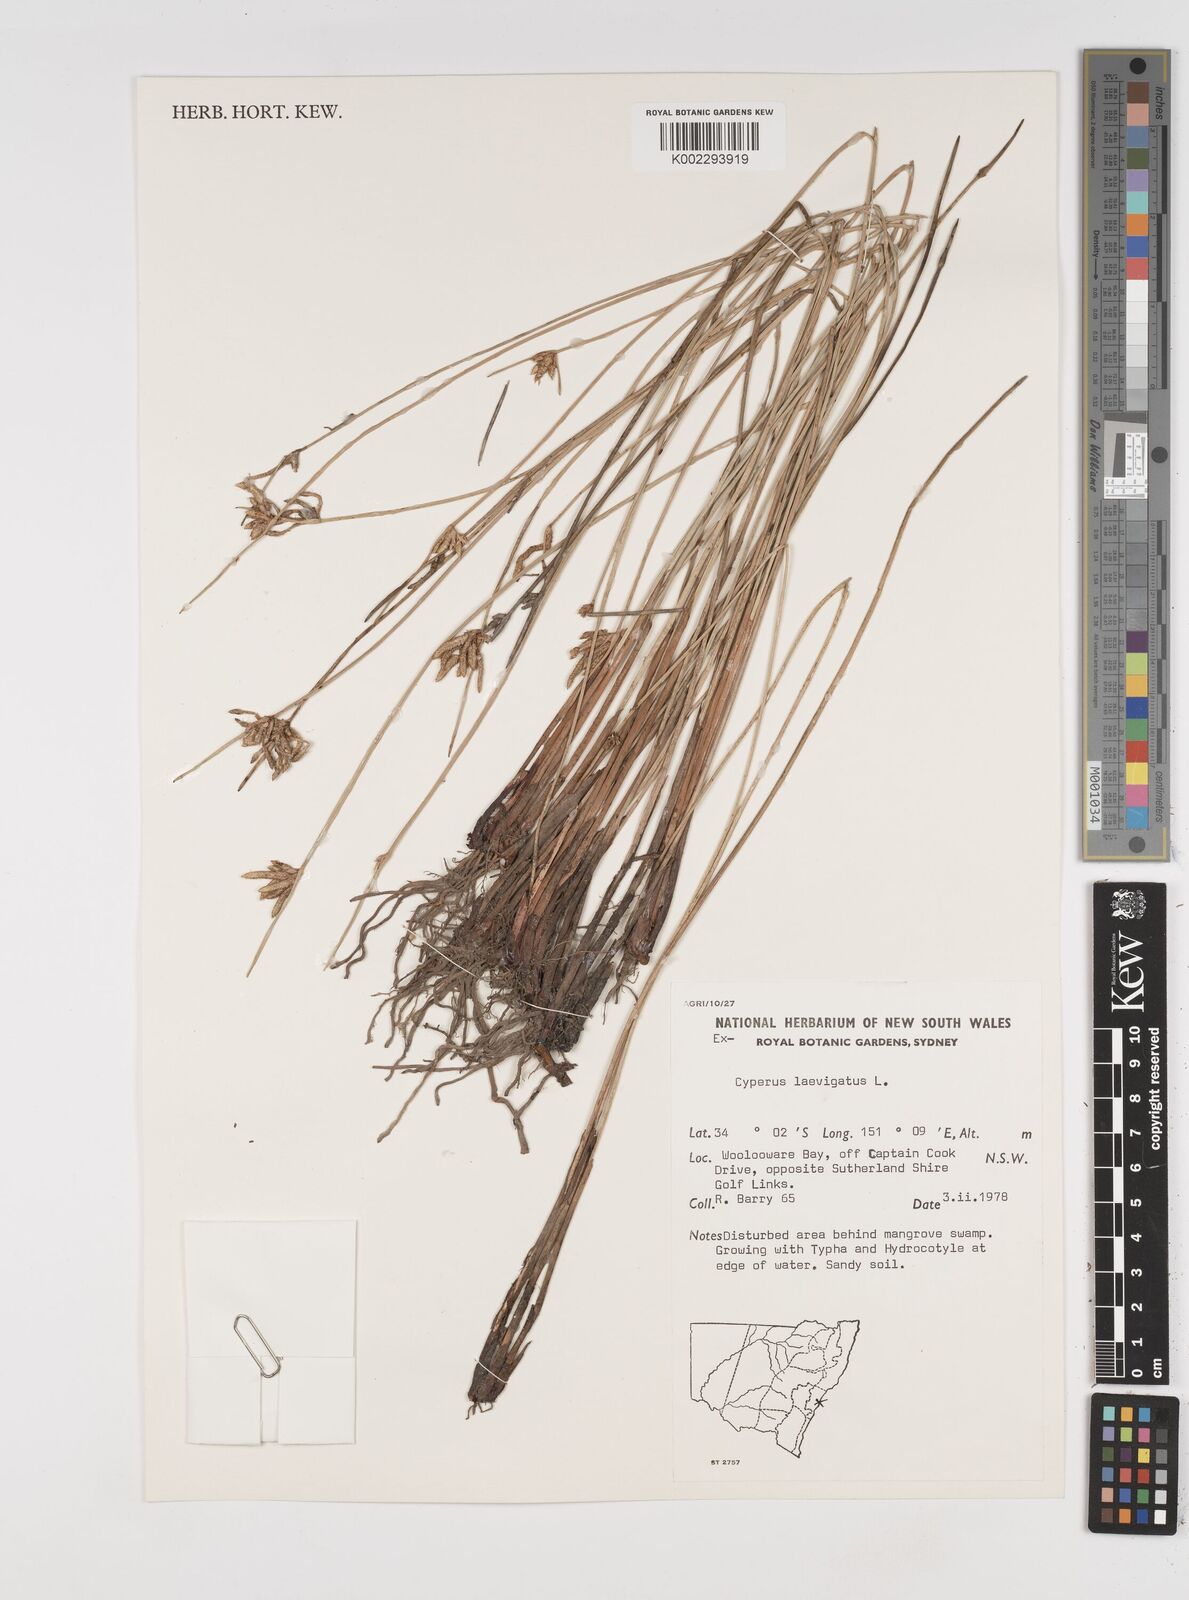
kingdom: Plantae
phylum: Tracheophyta
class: Liliopsida
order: Poales
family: Cyperaceae
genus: Cyperus
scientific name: Cyperus laevigatus
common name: Smooth flat sedge
